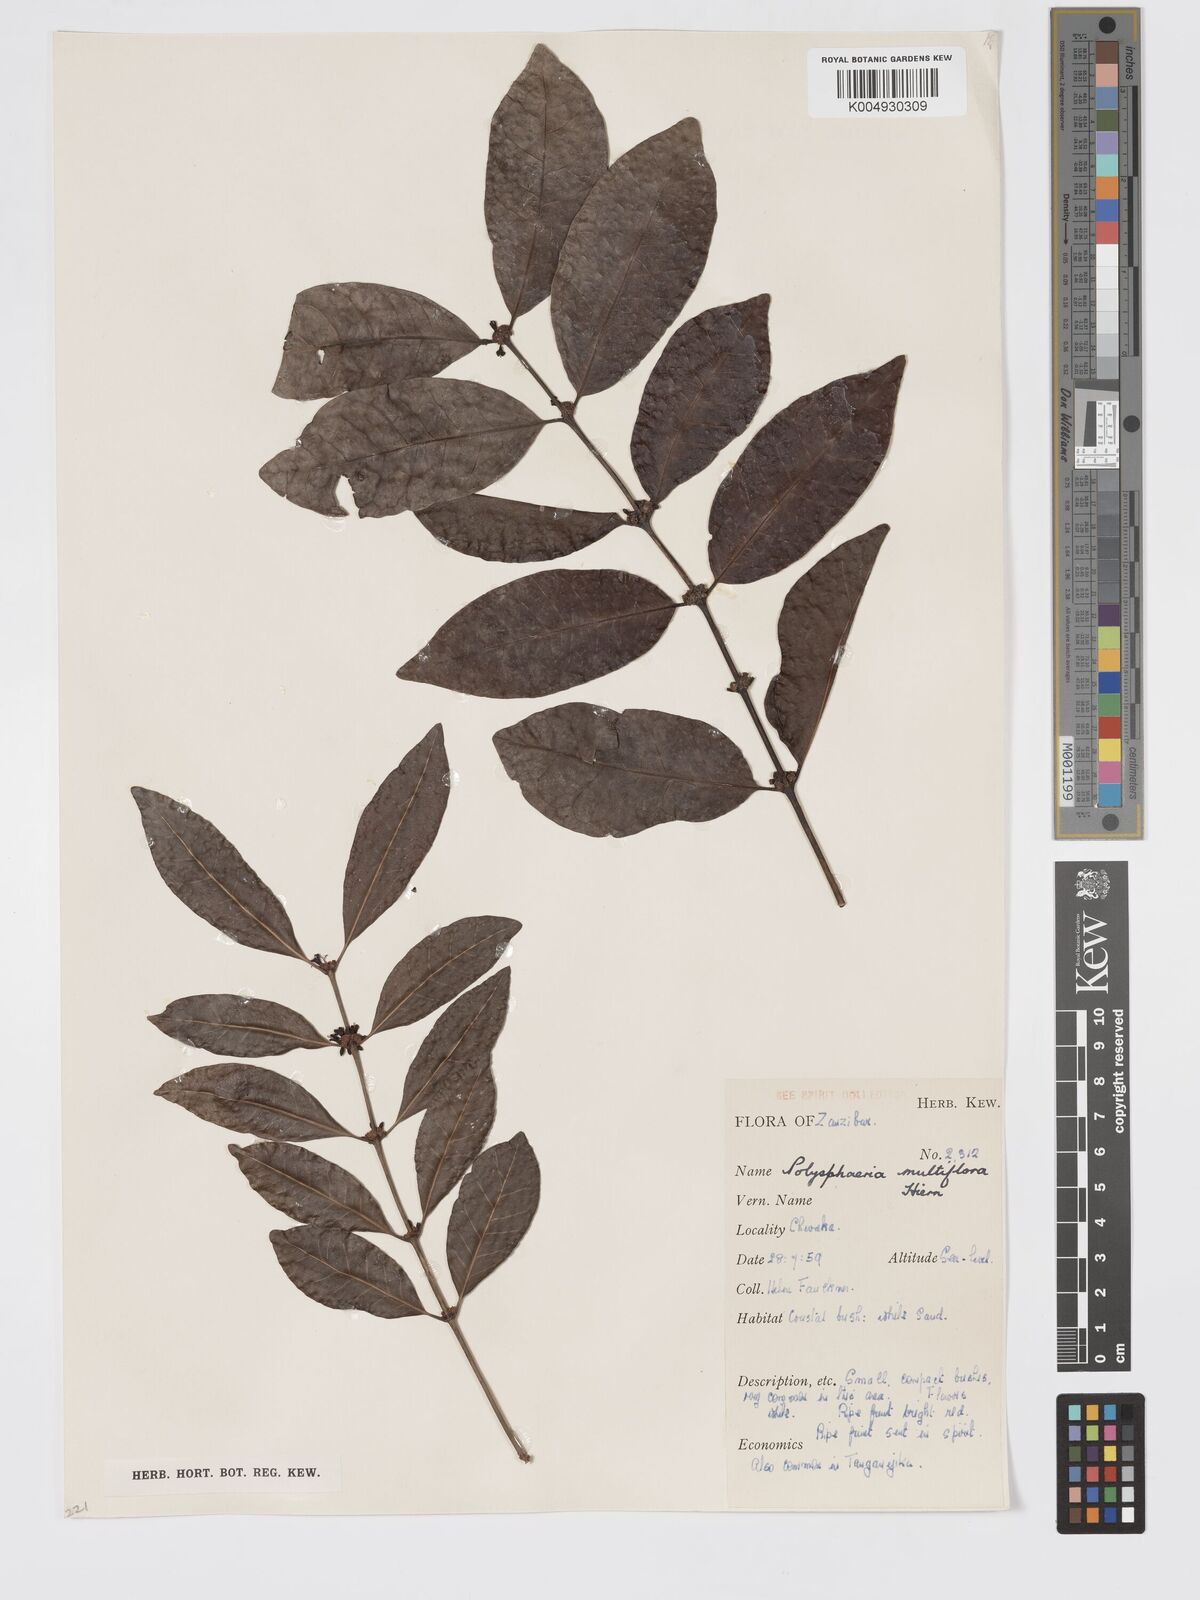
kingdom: Plantae
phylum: Tracheophyta
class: Magnoliopsida
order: Gentianales
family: Rubiaceae
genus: Polysphaeria
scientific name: Polysphaeria multiflora
